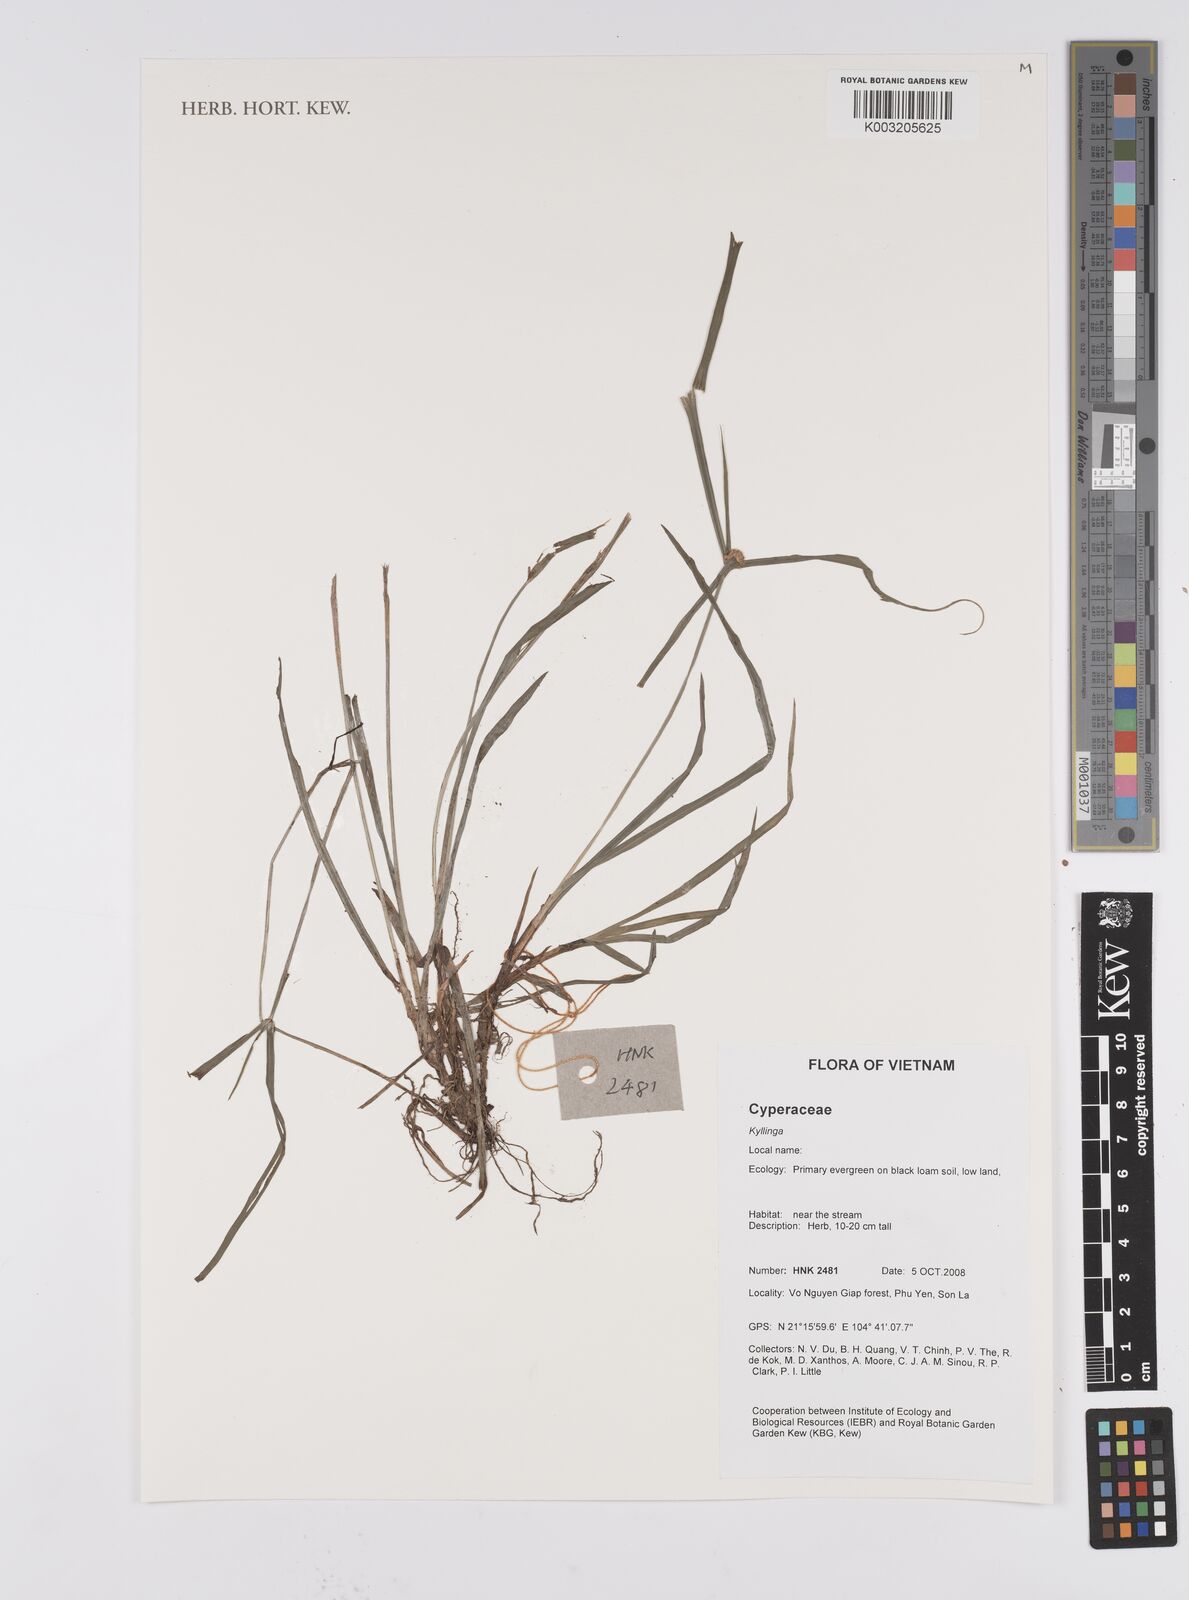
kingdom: Plantae
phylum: Tracheophyta
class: Liliopsida
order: Poales
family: Cyperaceae
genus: Cyperus
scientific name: Cyperus
